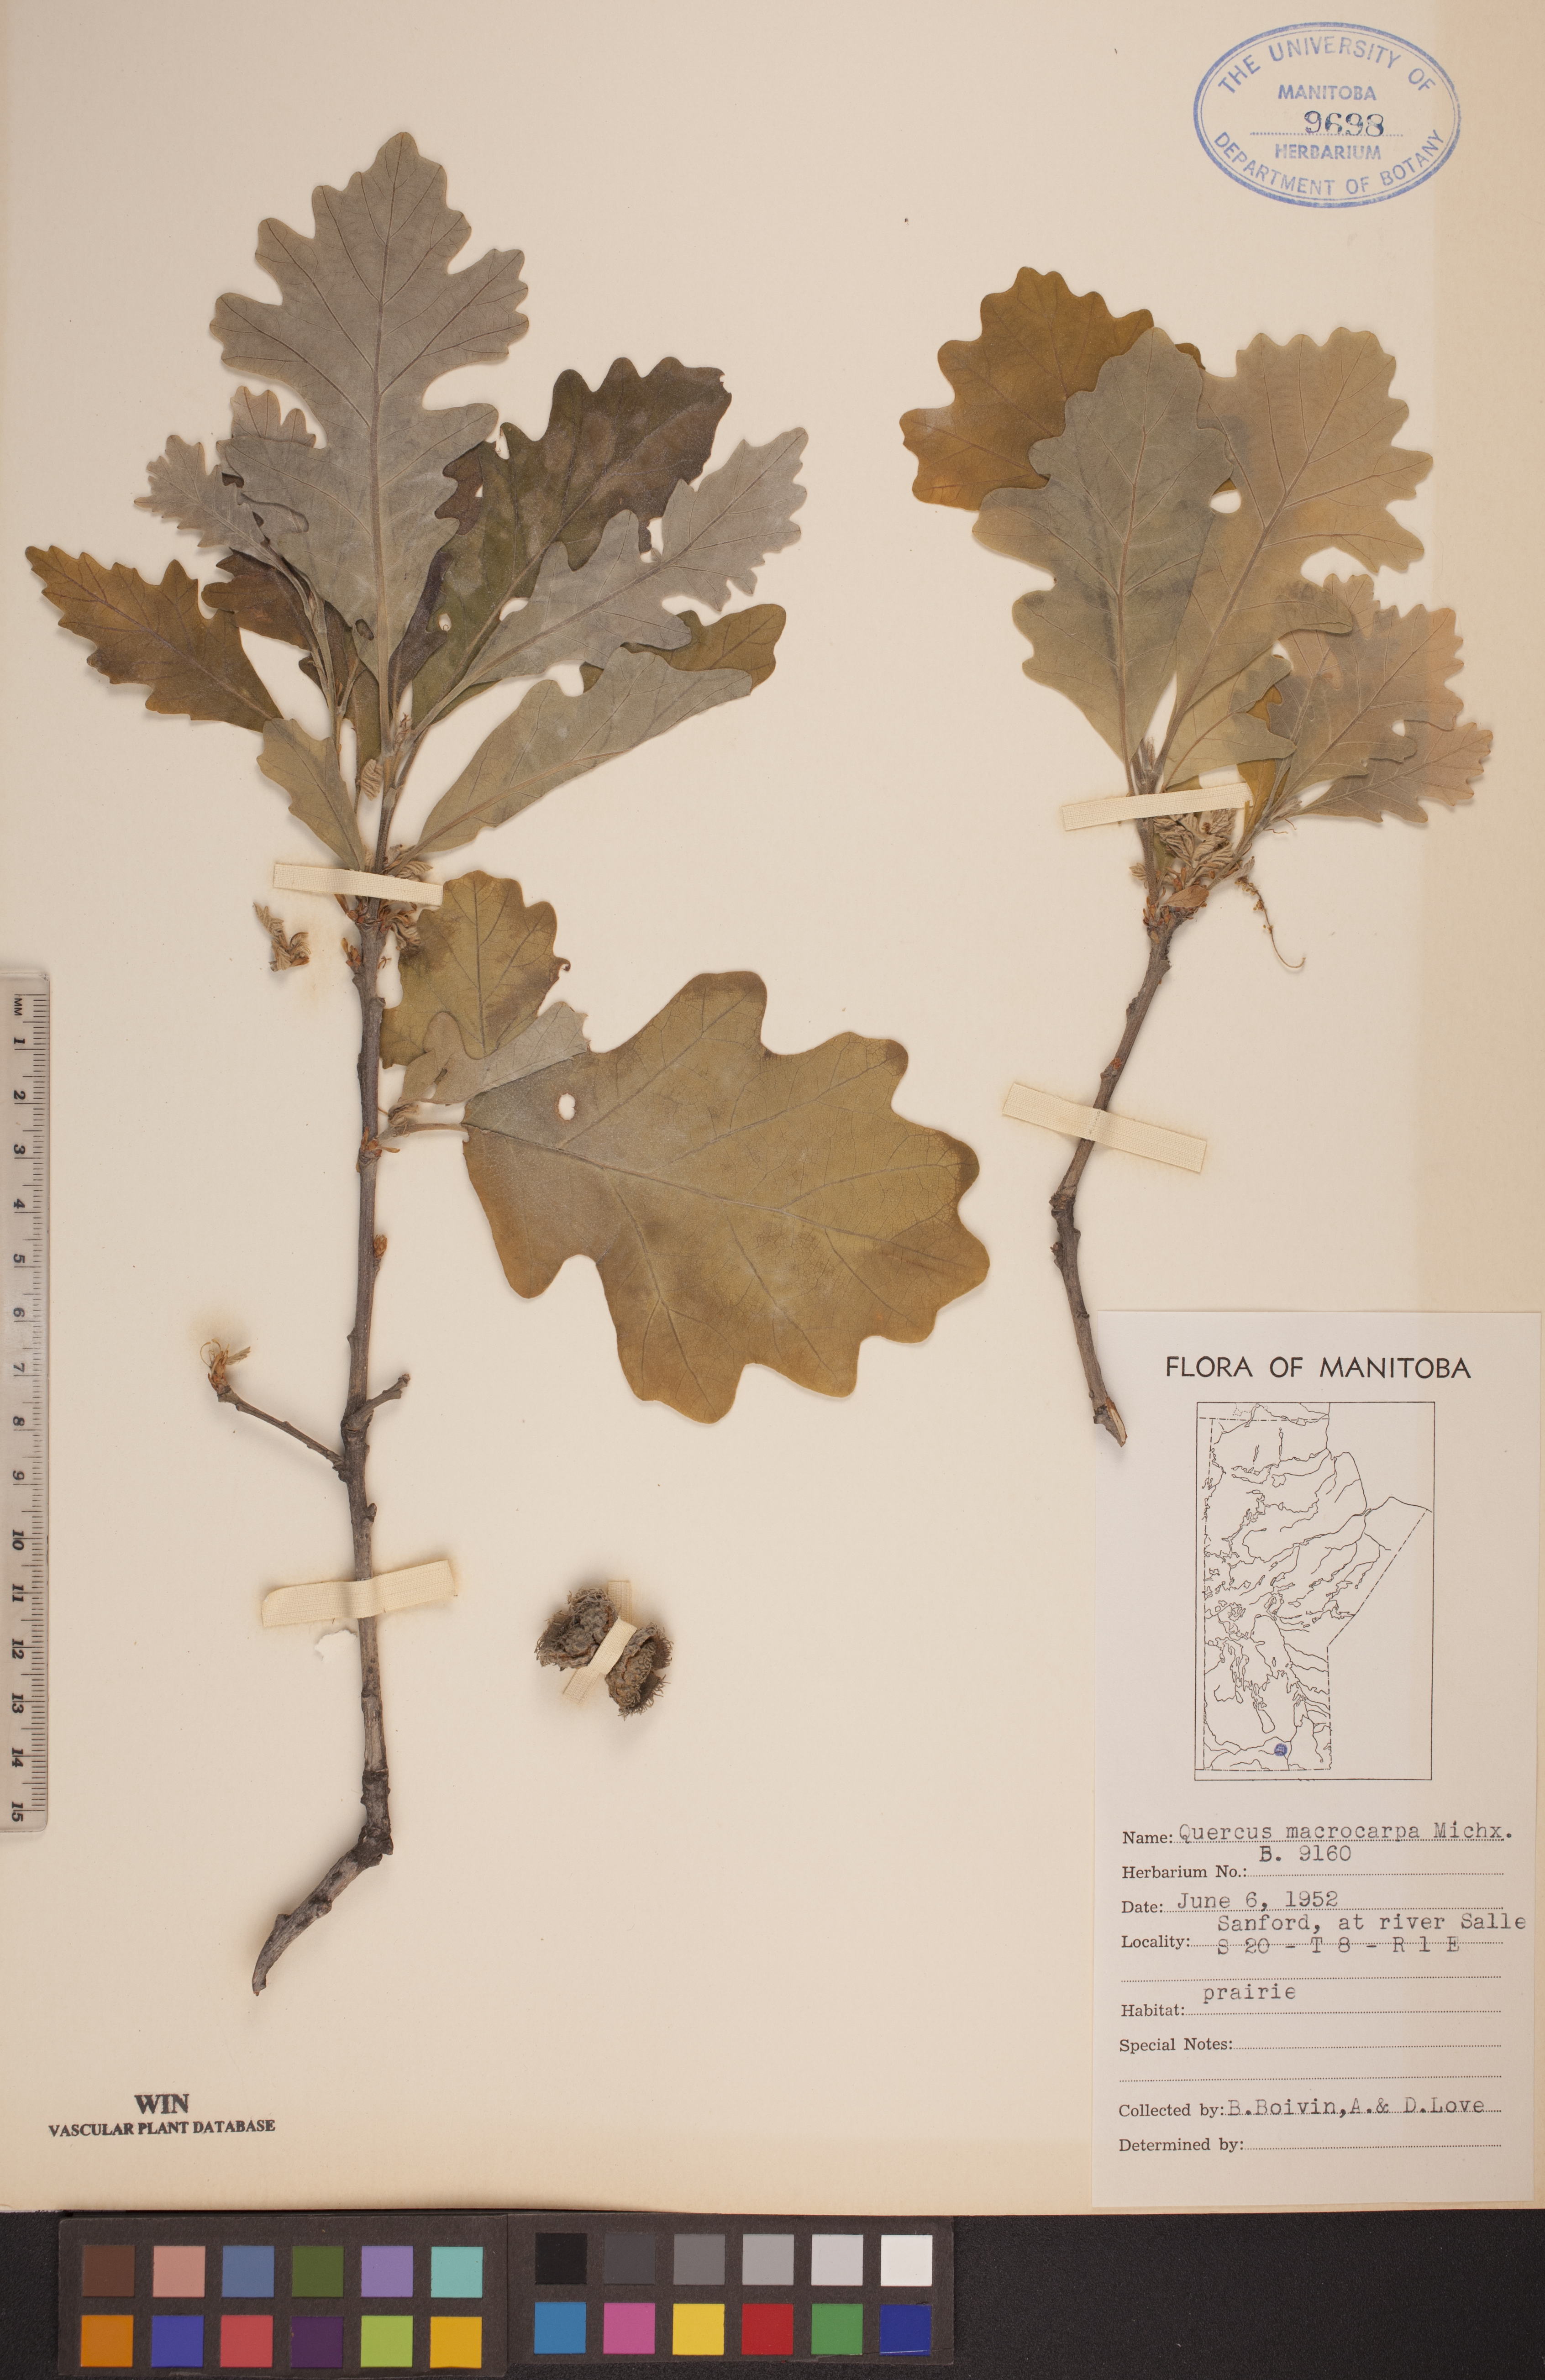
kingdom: Plantae
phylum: Tracheophyta
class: Magnoliopsida
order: Fagales
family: Fagaceae
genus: Quercus
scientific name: Quercus macrocarpa
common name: Bur oak
